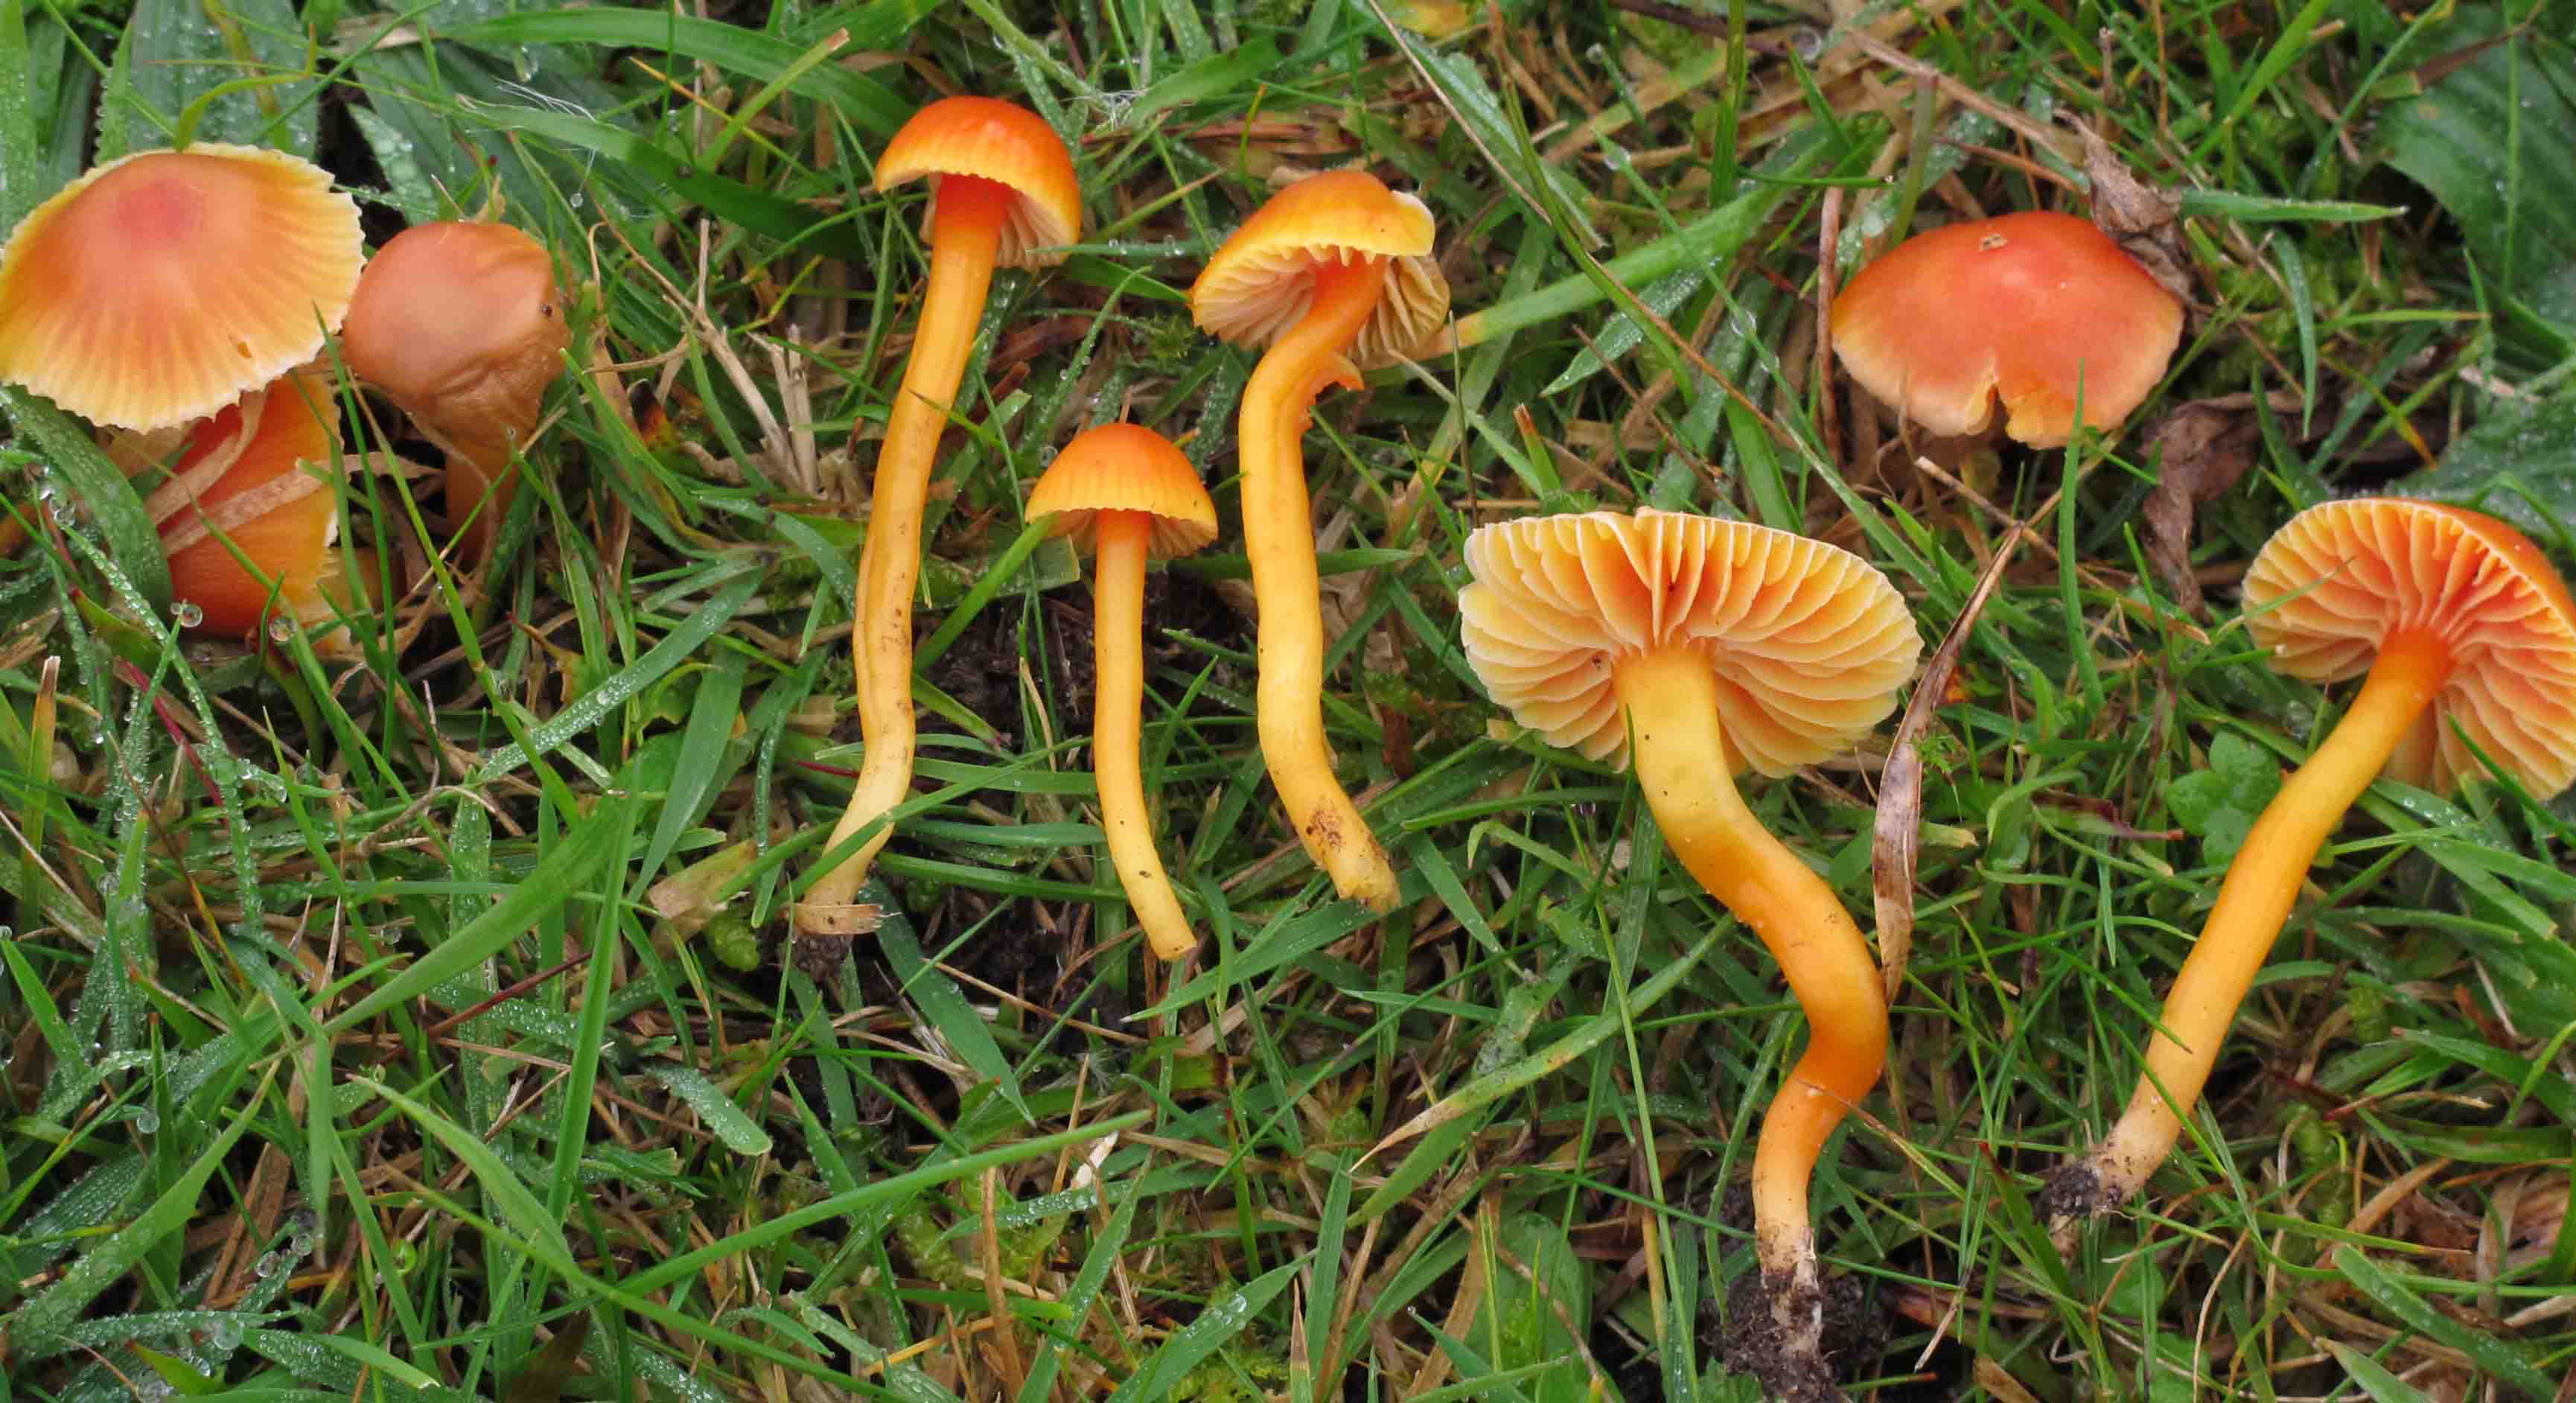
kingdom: Fungi
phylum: Basidiomycota
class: Agaricomycetes
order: Agaricales
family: Hygrophoraceae
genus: Hygrocybe
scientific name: Hygrocybe mucronella
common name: bitter vokshat
